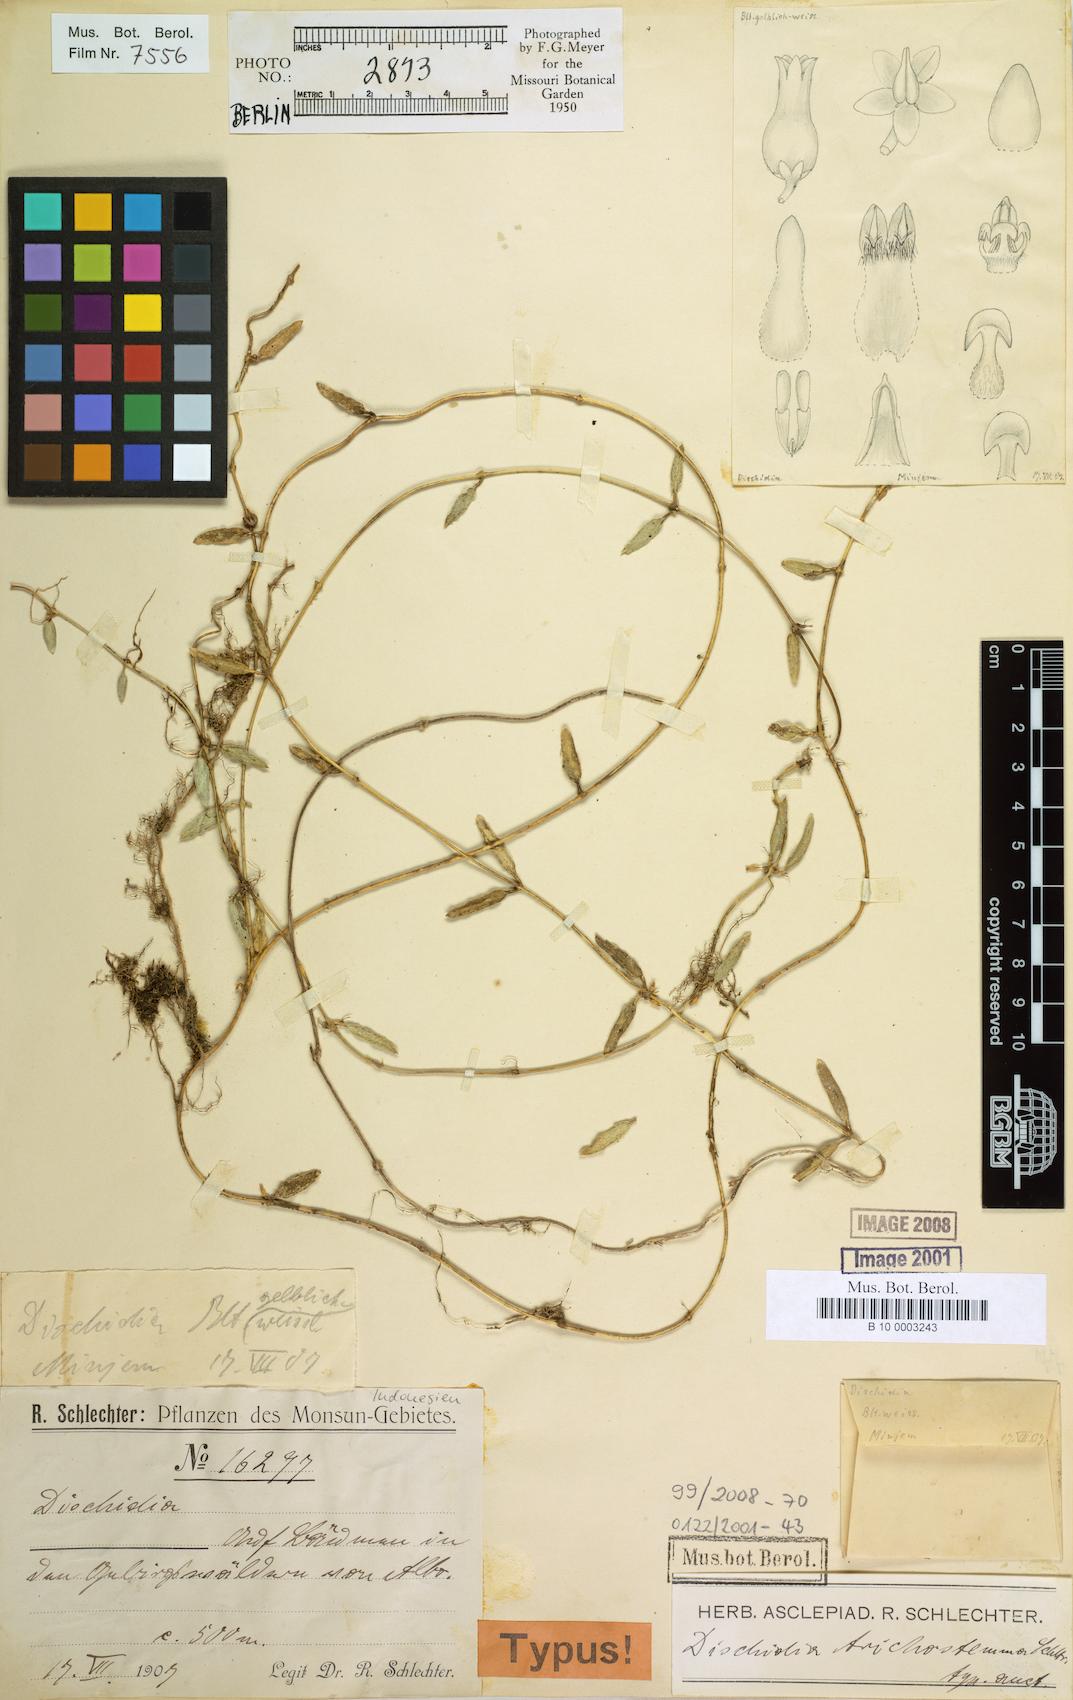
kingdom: Plantae
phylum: Tracheophyta
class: Magnoliopsida
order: Gentianales
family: Apocynaceae
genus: Dischidia
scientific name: Dischidia trichostemma
